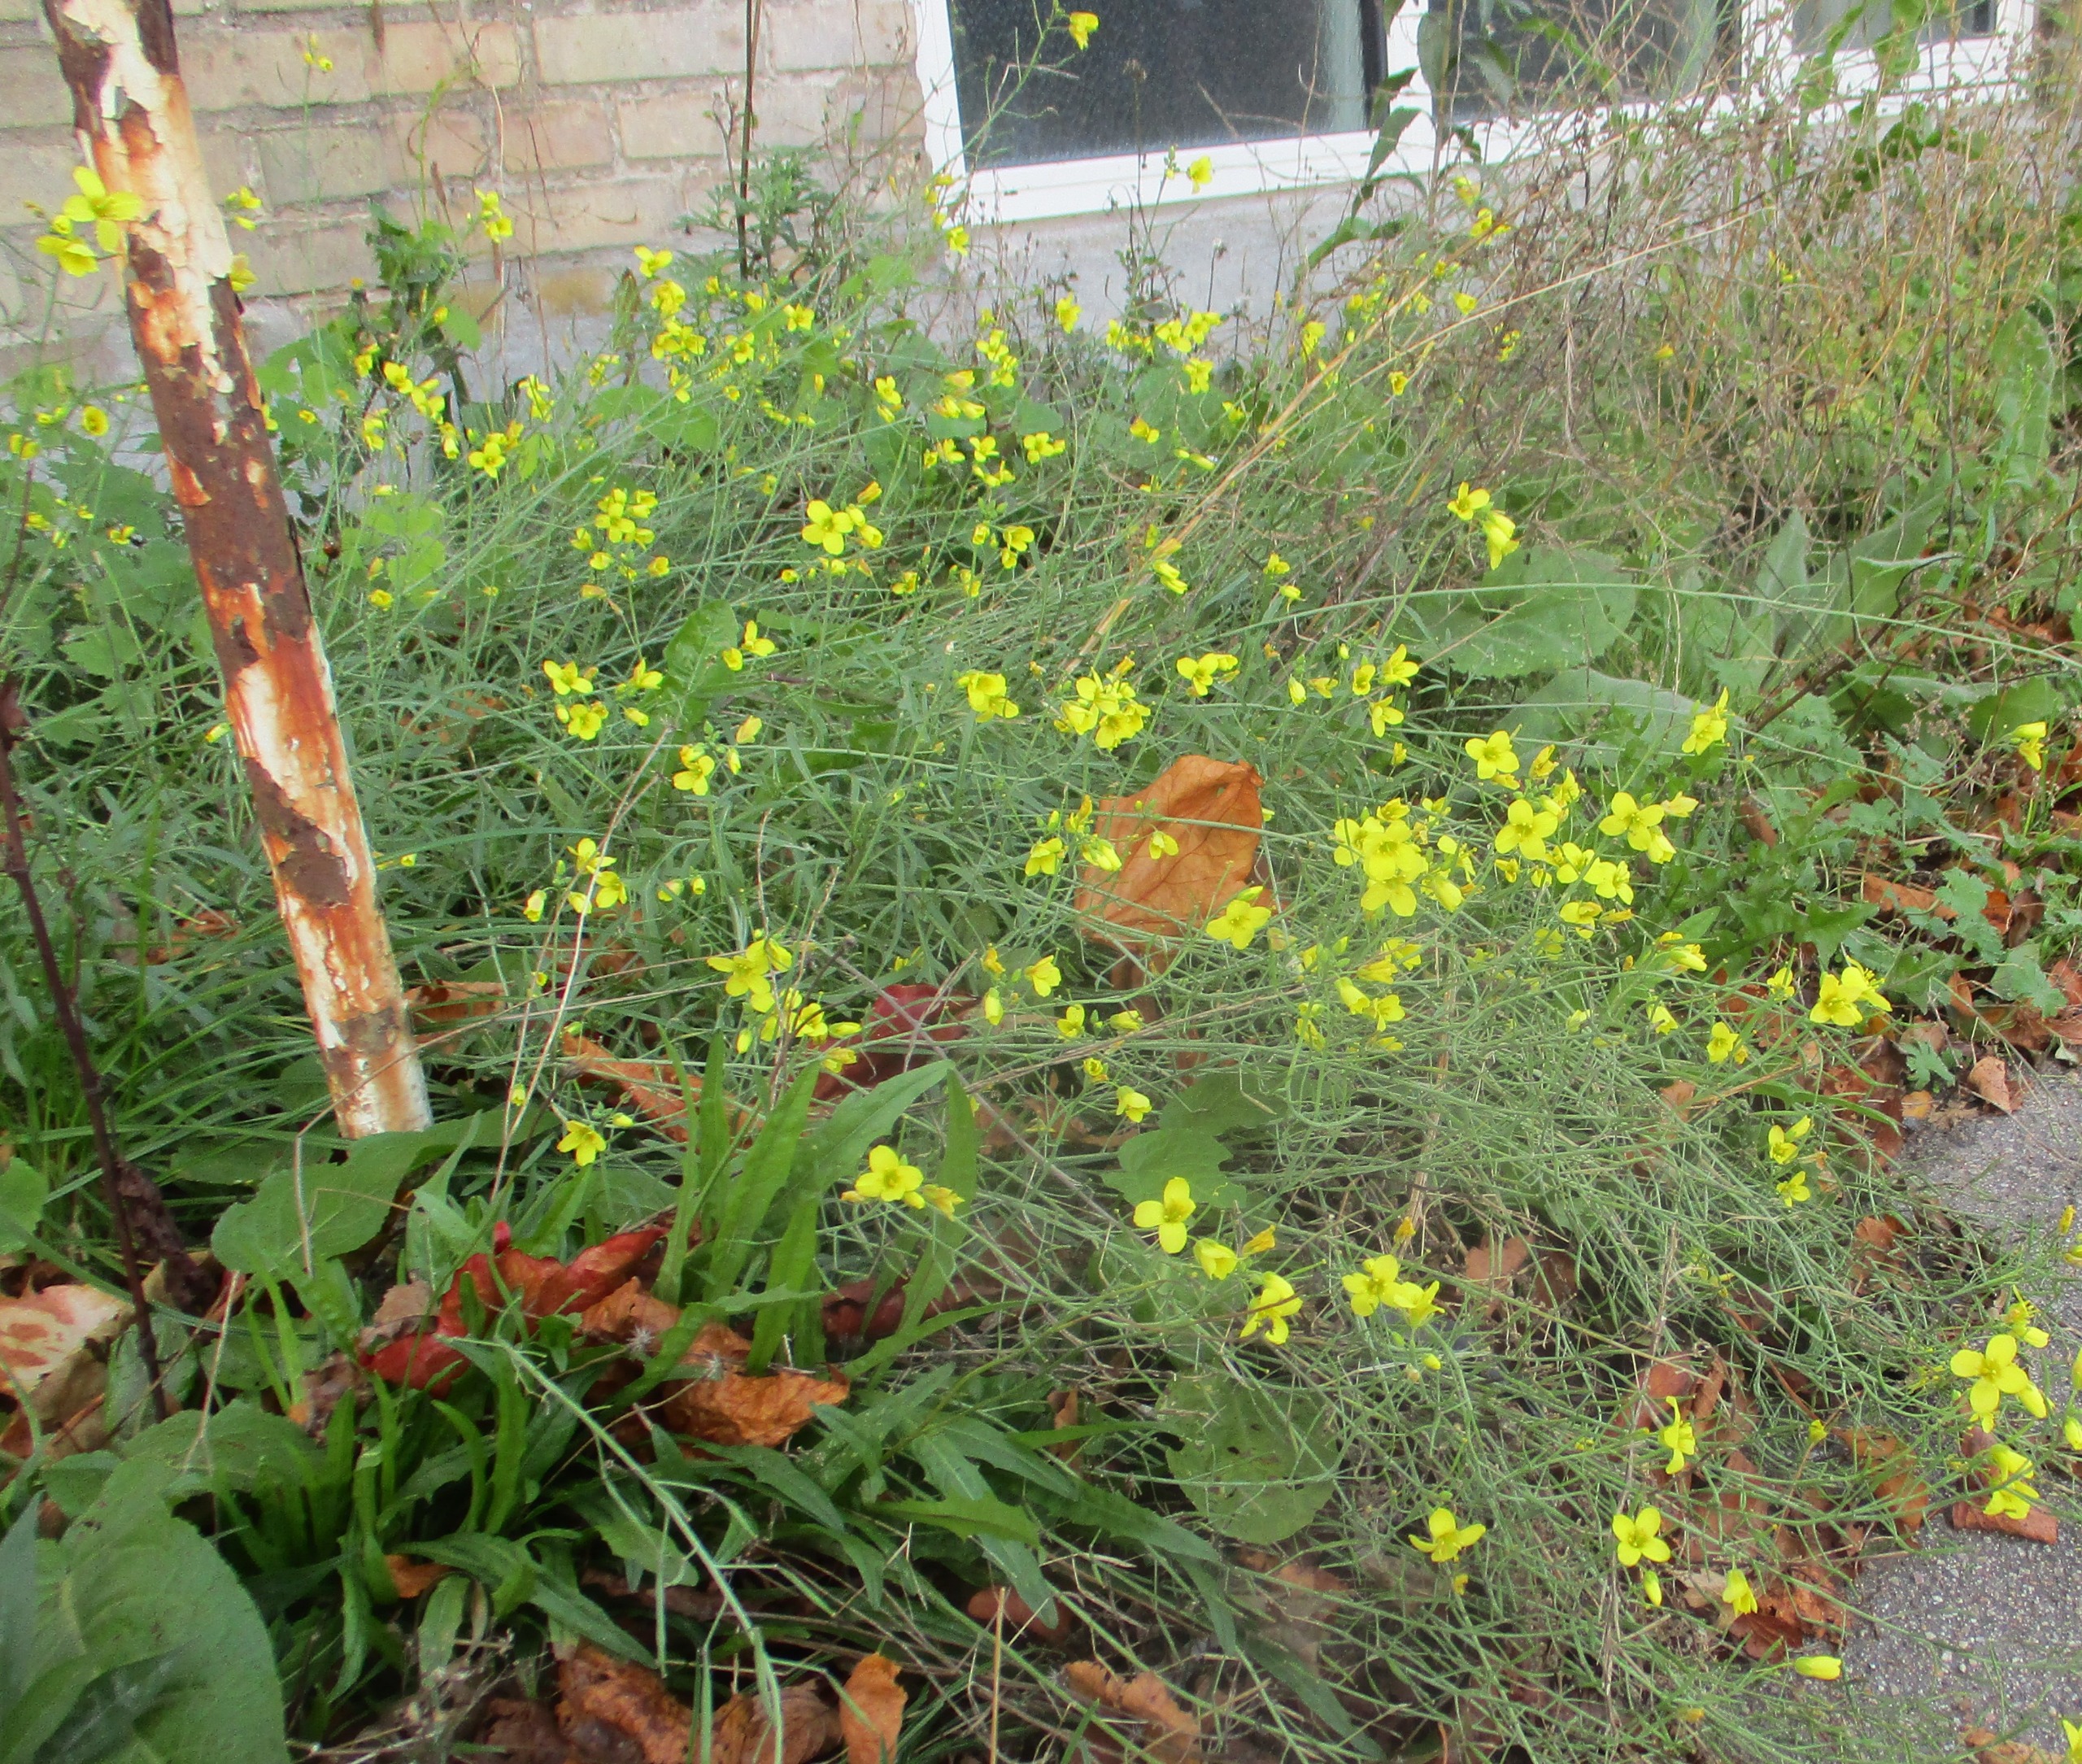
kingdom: Plantae
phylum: Tracheophyta
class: Magnoliopsida
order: Brassicales
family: Brassicaceae
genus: Diplotaxis
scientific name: Diplotaxis tenuifolia
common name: Sandsennep
